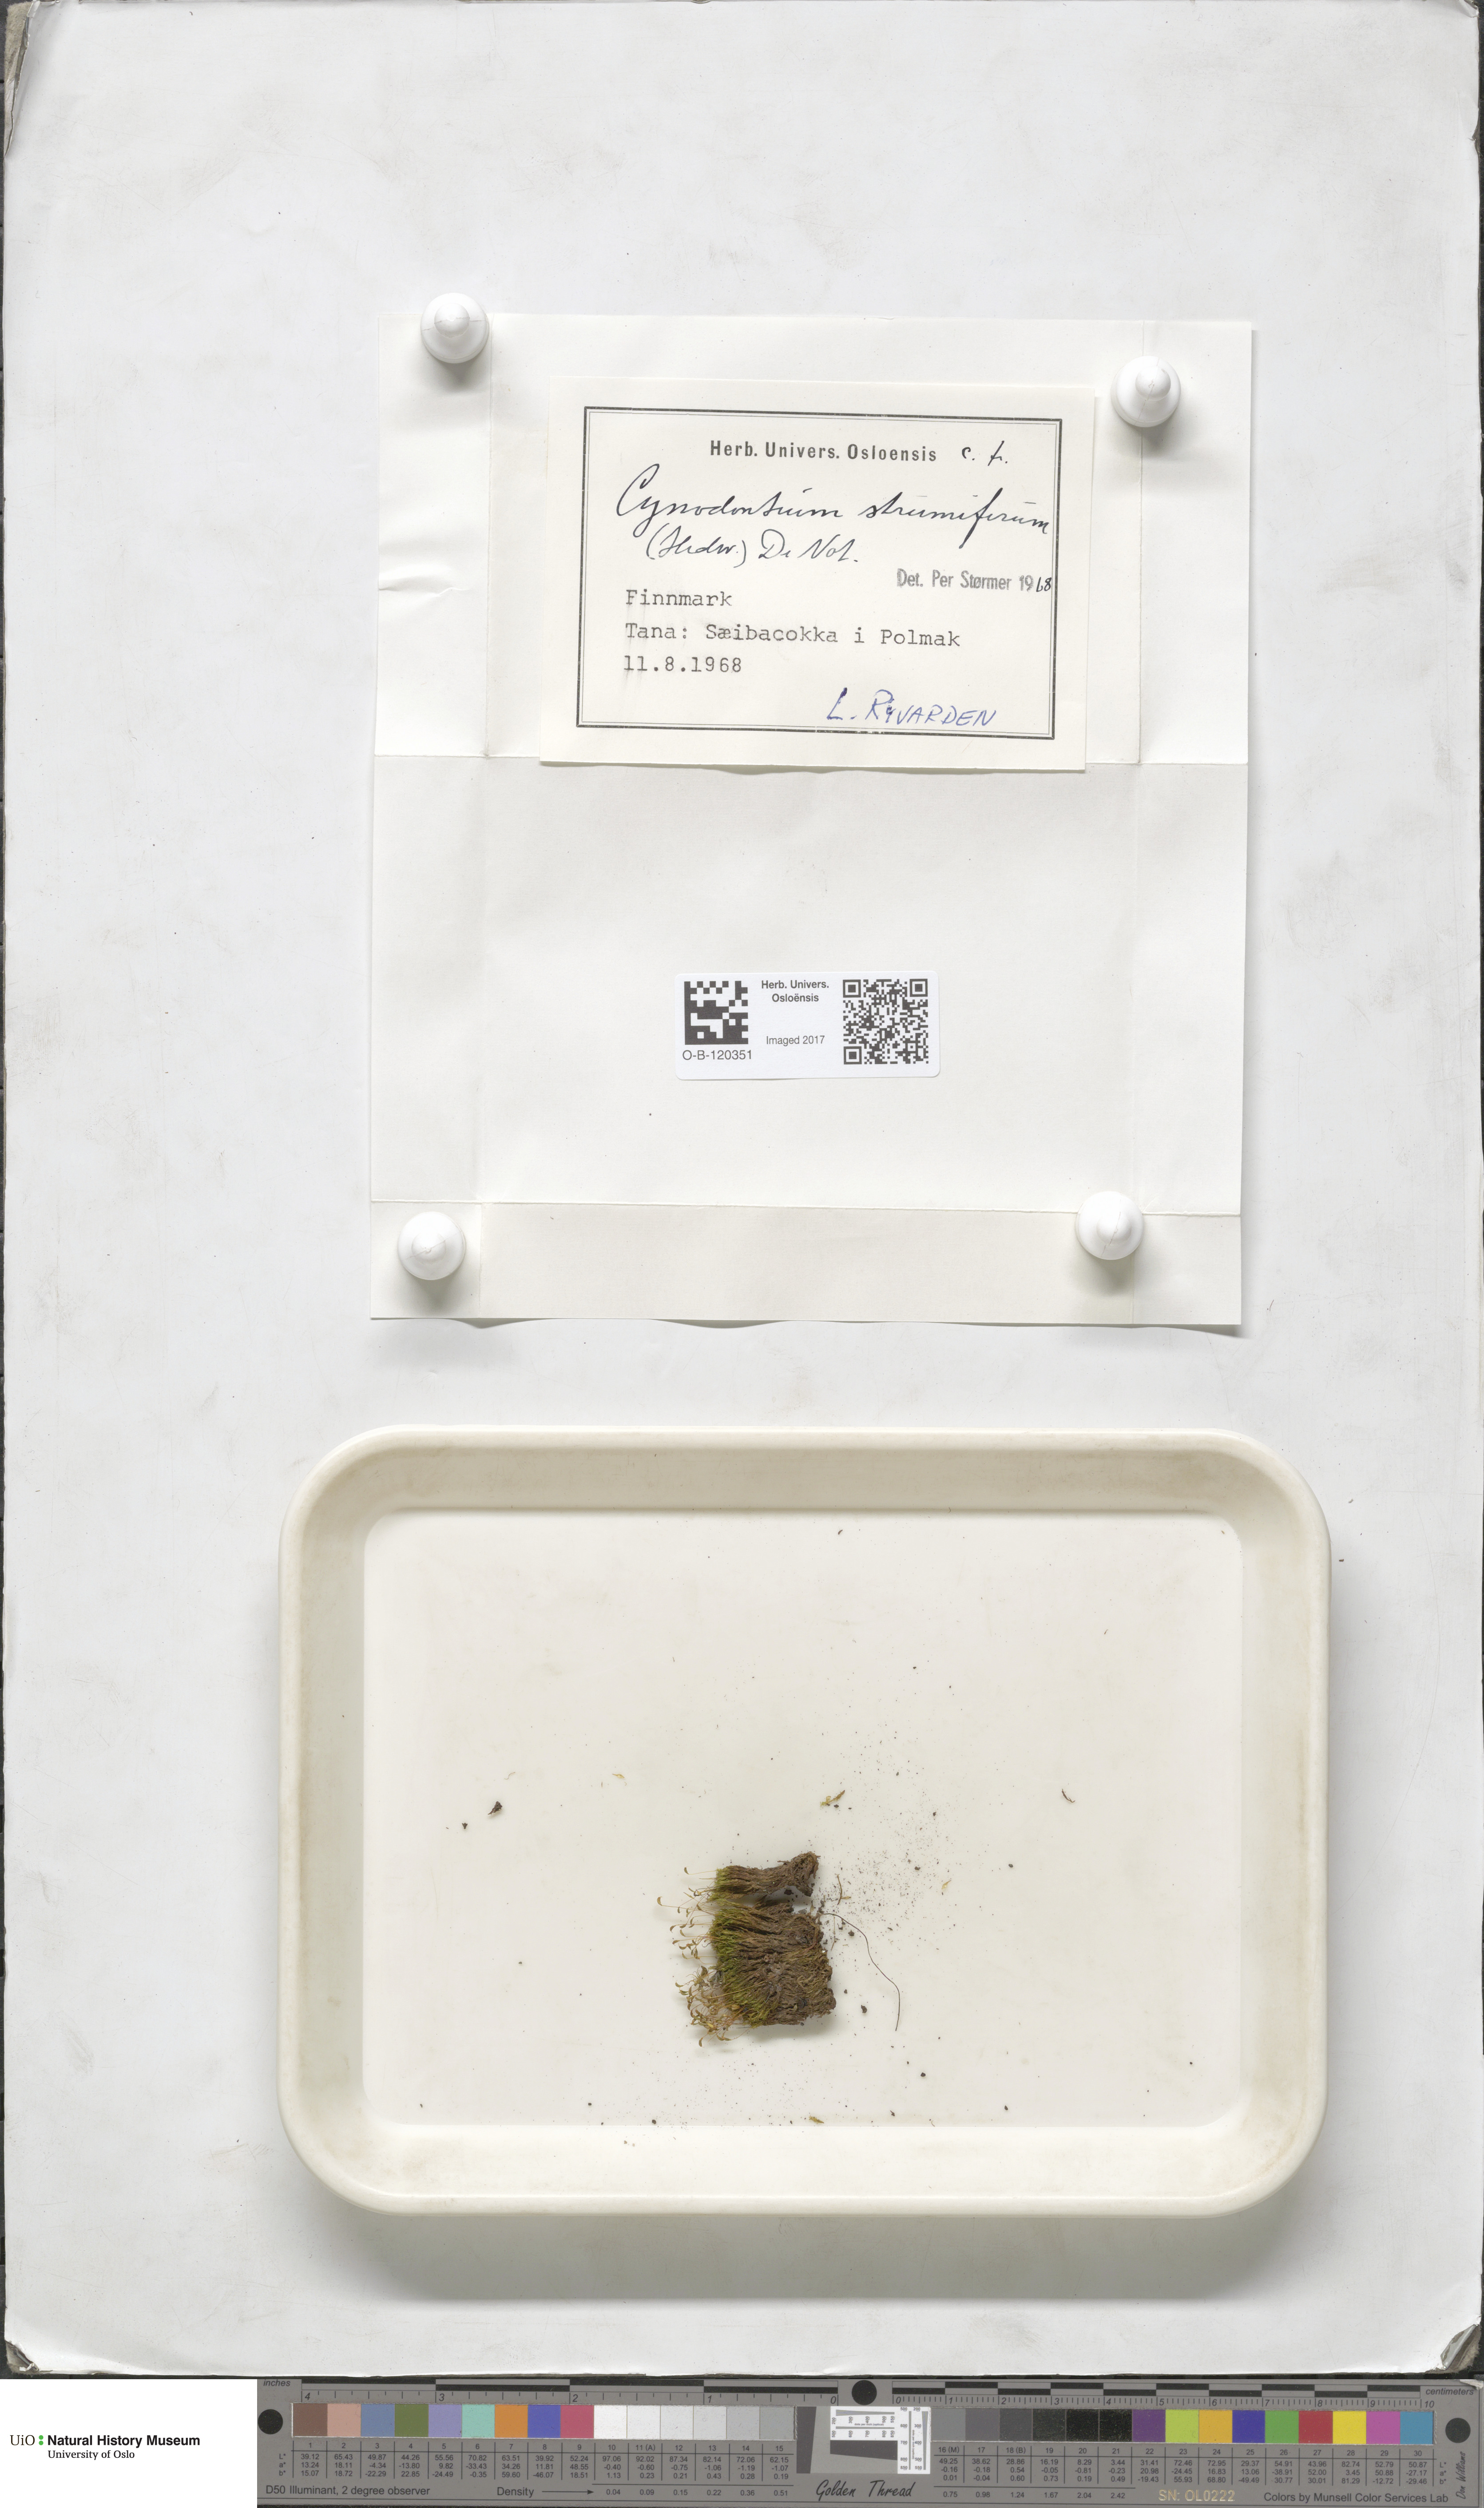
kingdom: Plantae
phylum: Bryophyta
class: Bryopsida
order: Dicranales
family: Rhabdoweisiaceae
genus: Cynodontium
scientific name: Cynodontium strumiferum
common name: Swollen dogtooth moss
